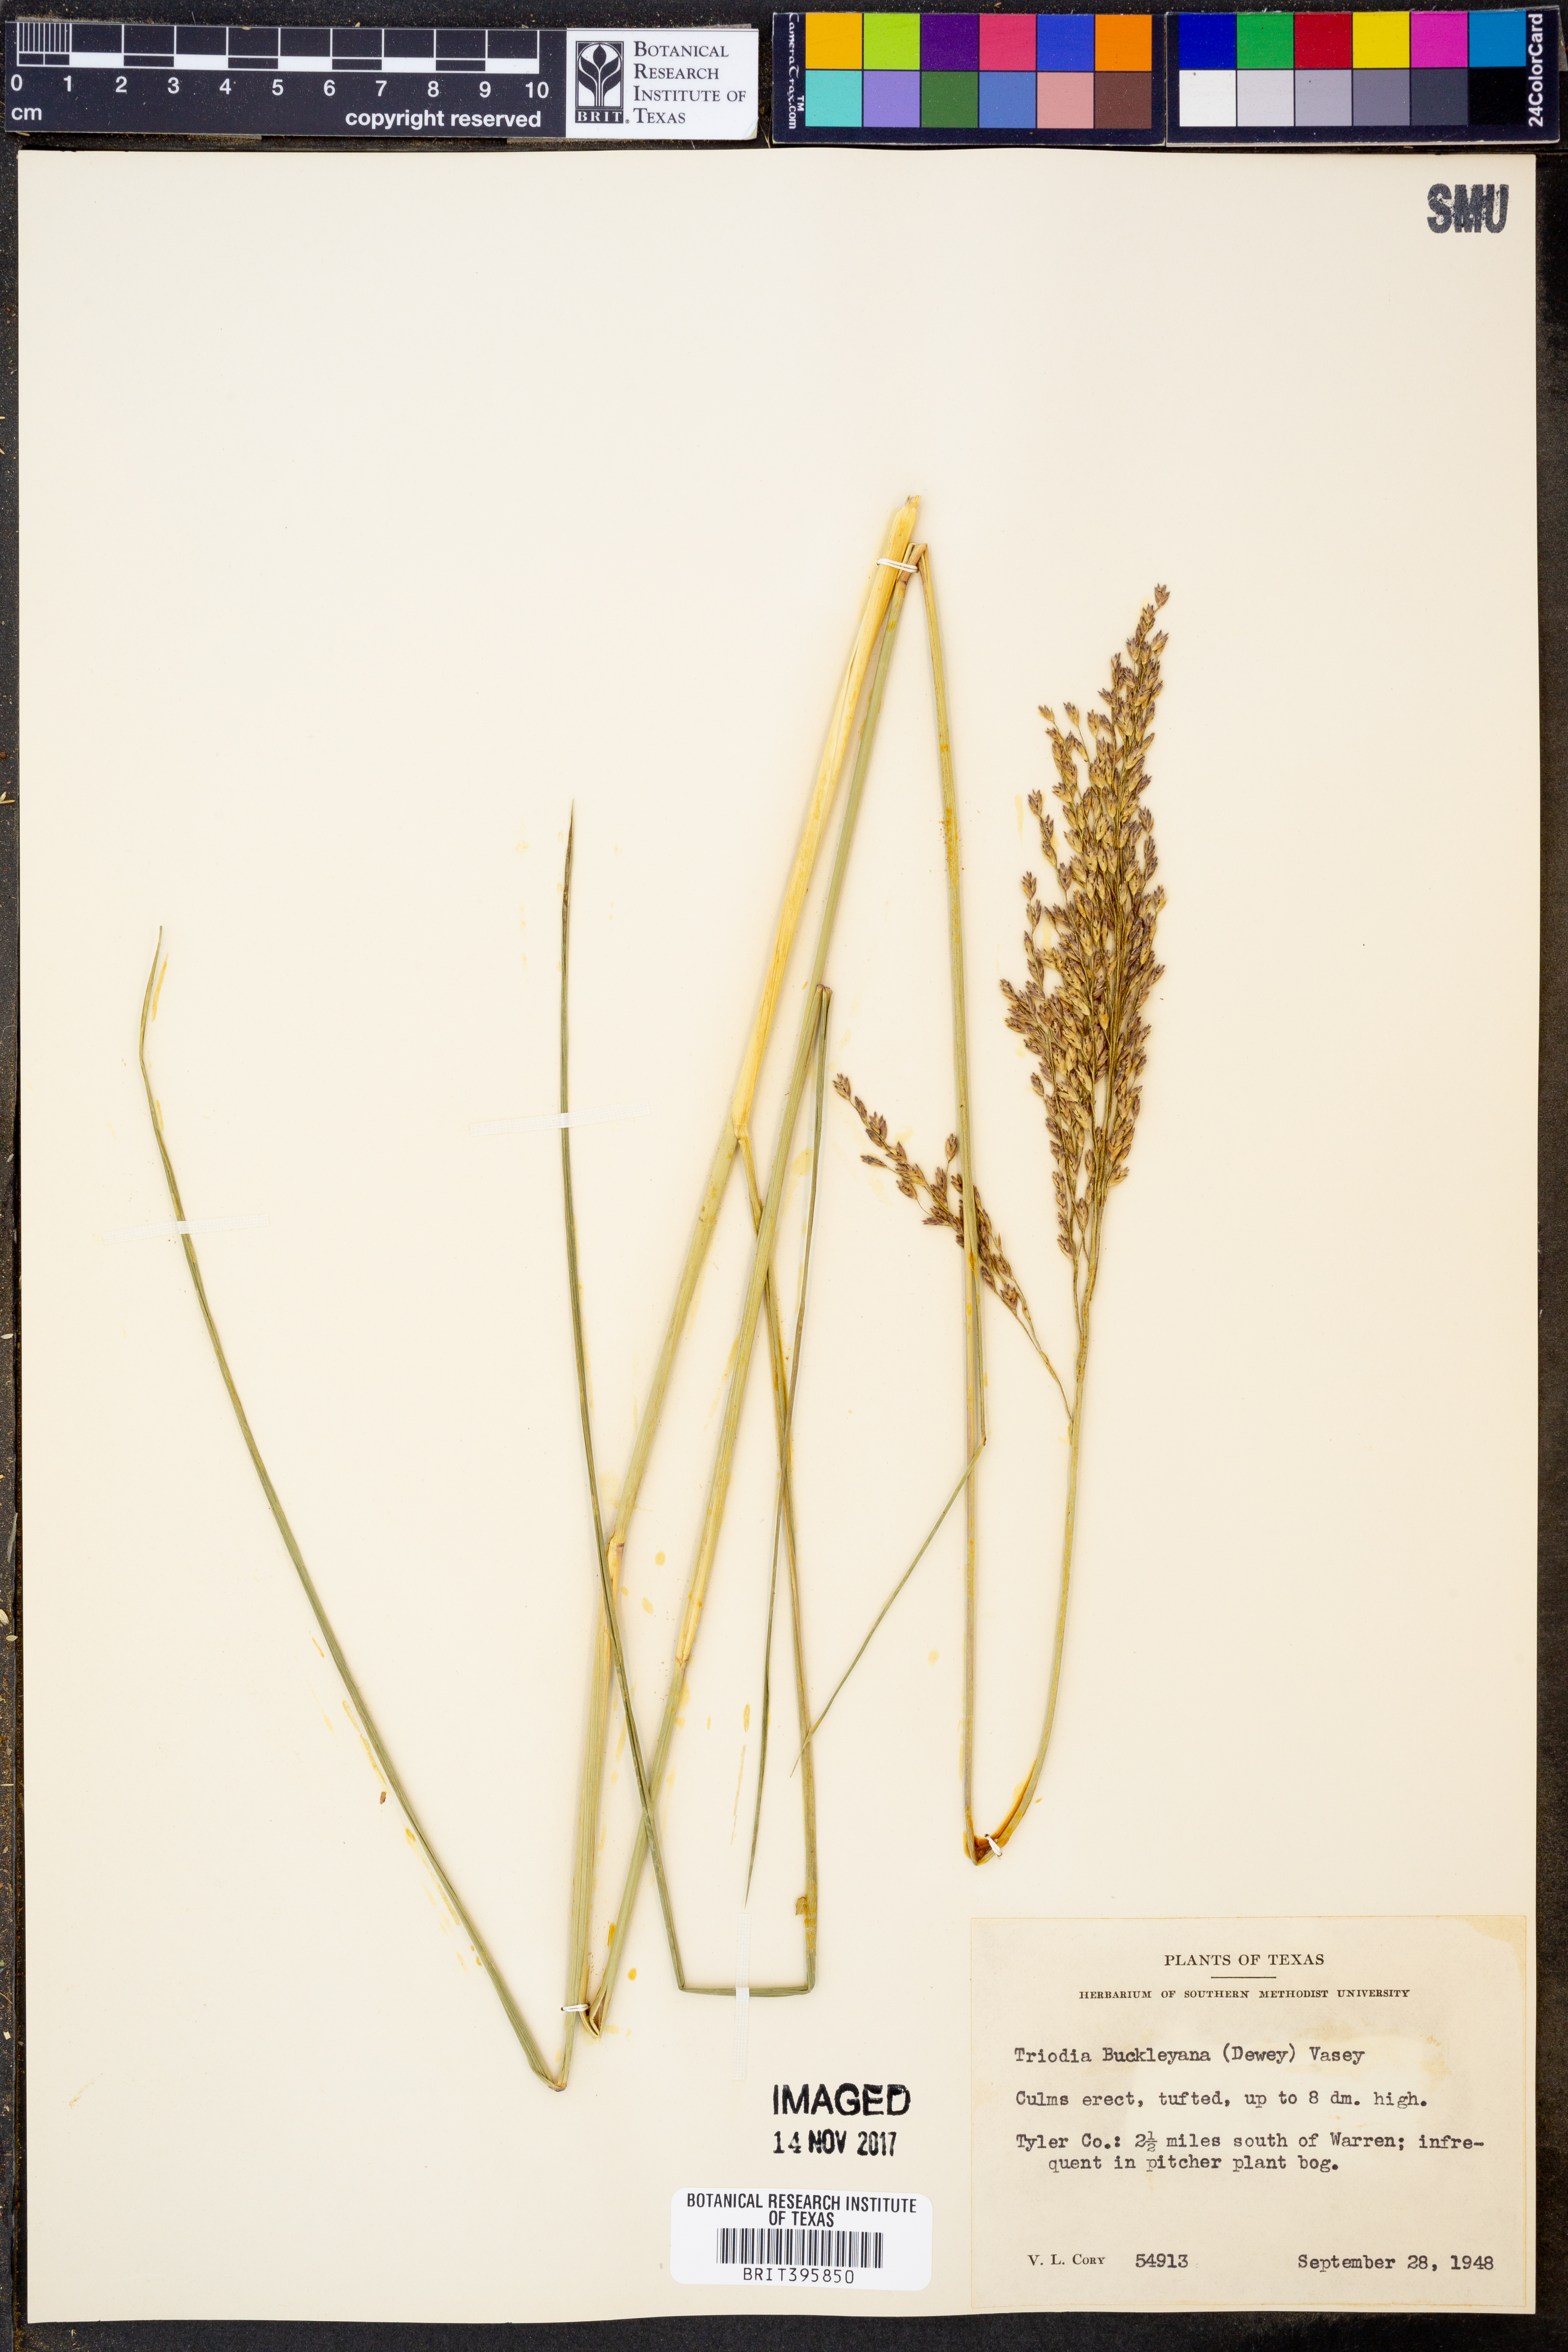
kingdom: Plantae
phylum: Tracheophyta
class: Liliopsida
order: Poales
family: Poaceae
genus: Tridentopsis
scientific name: Tridentopsis buckleyana
